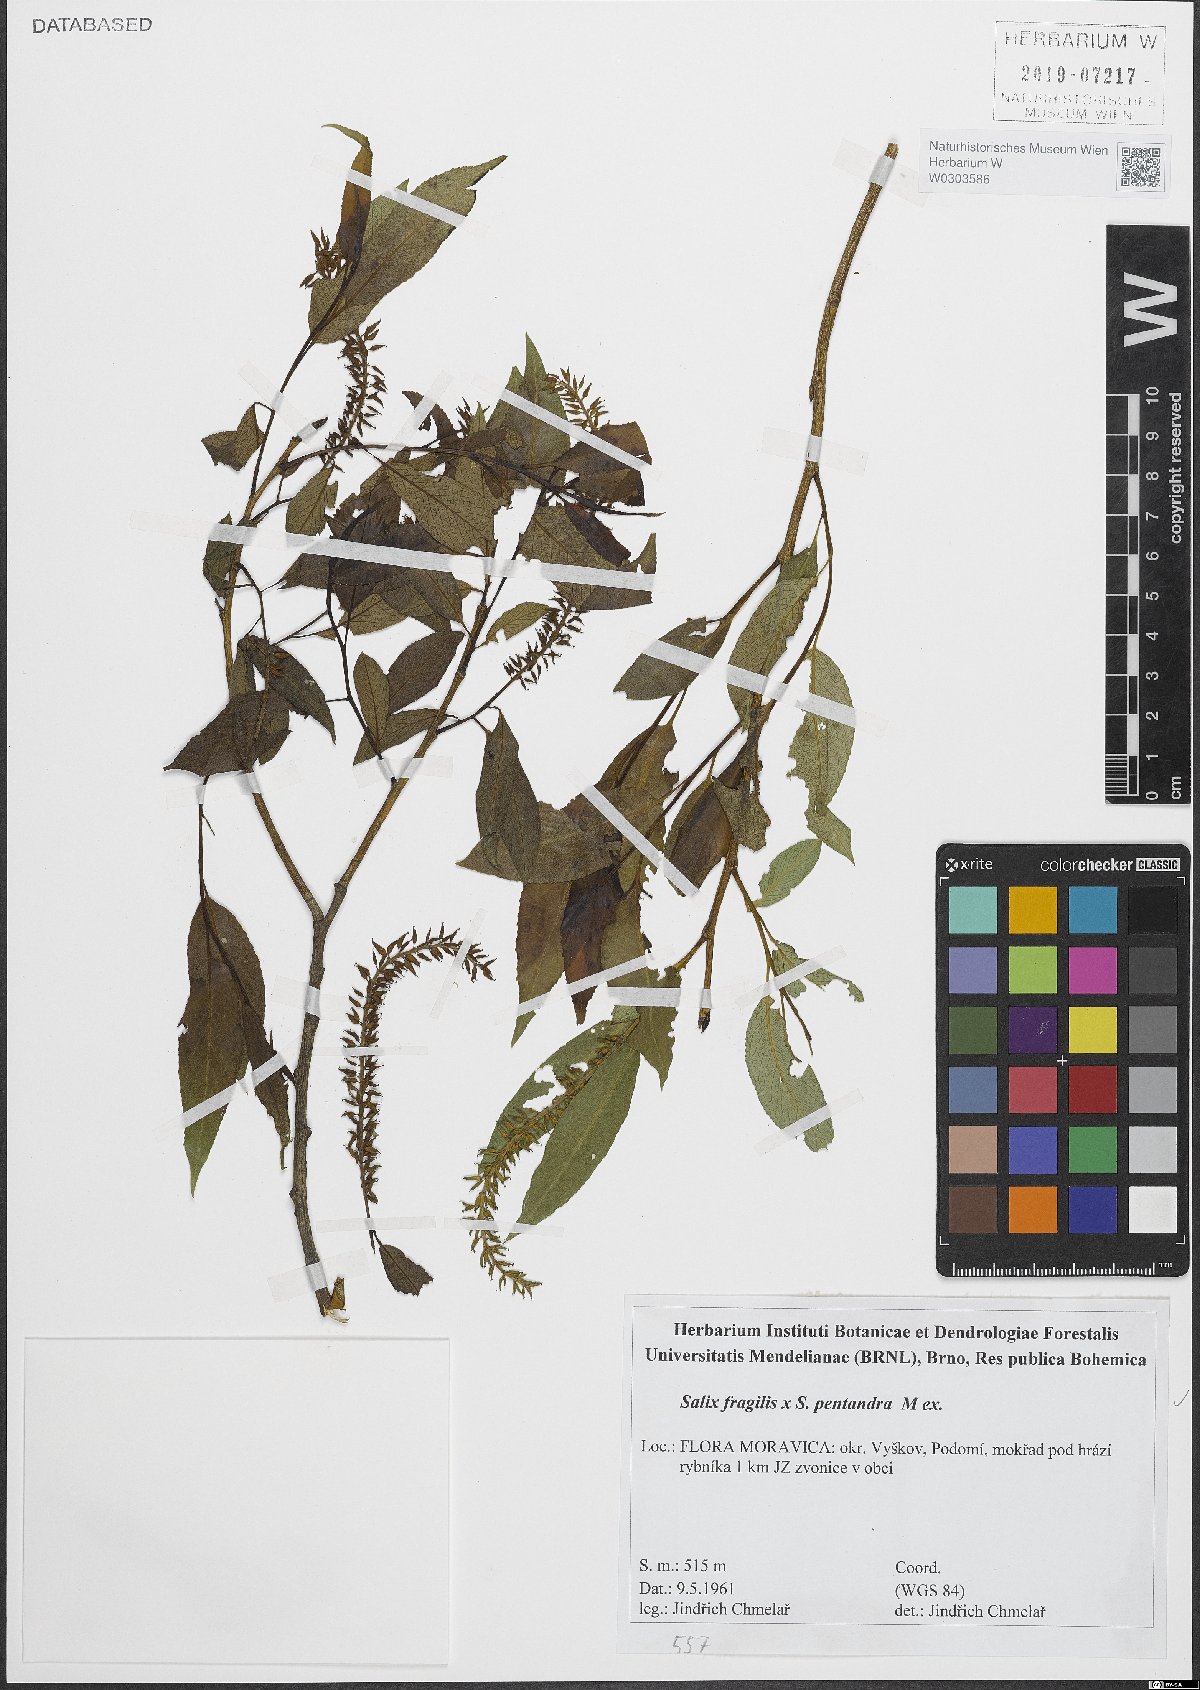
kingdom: Plantae
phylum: Tracheophyta
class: Magnoliopsida
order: Malpighiales
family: Salicaceae
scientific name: Salicaceae
